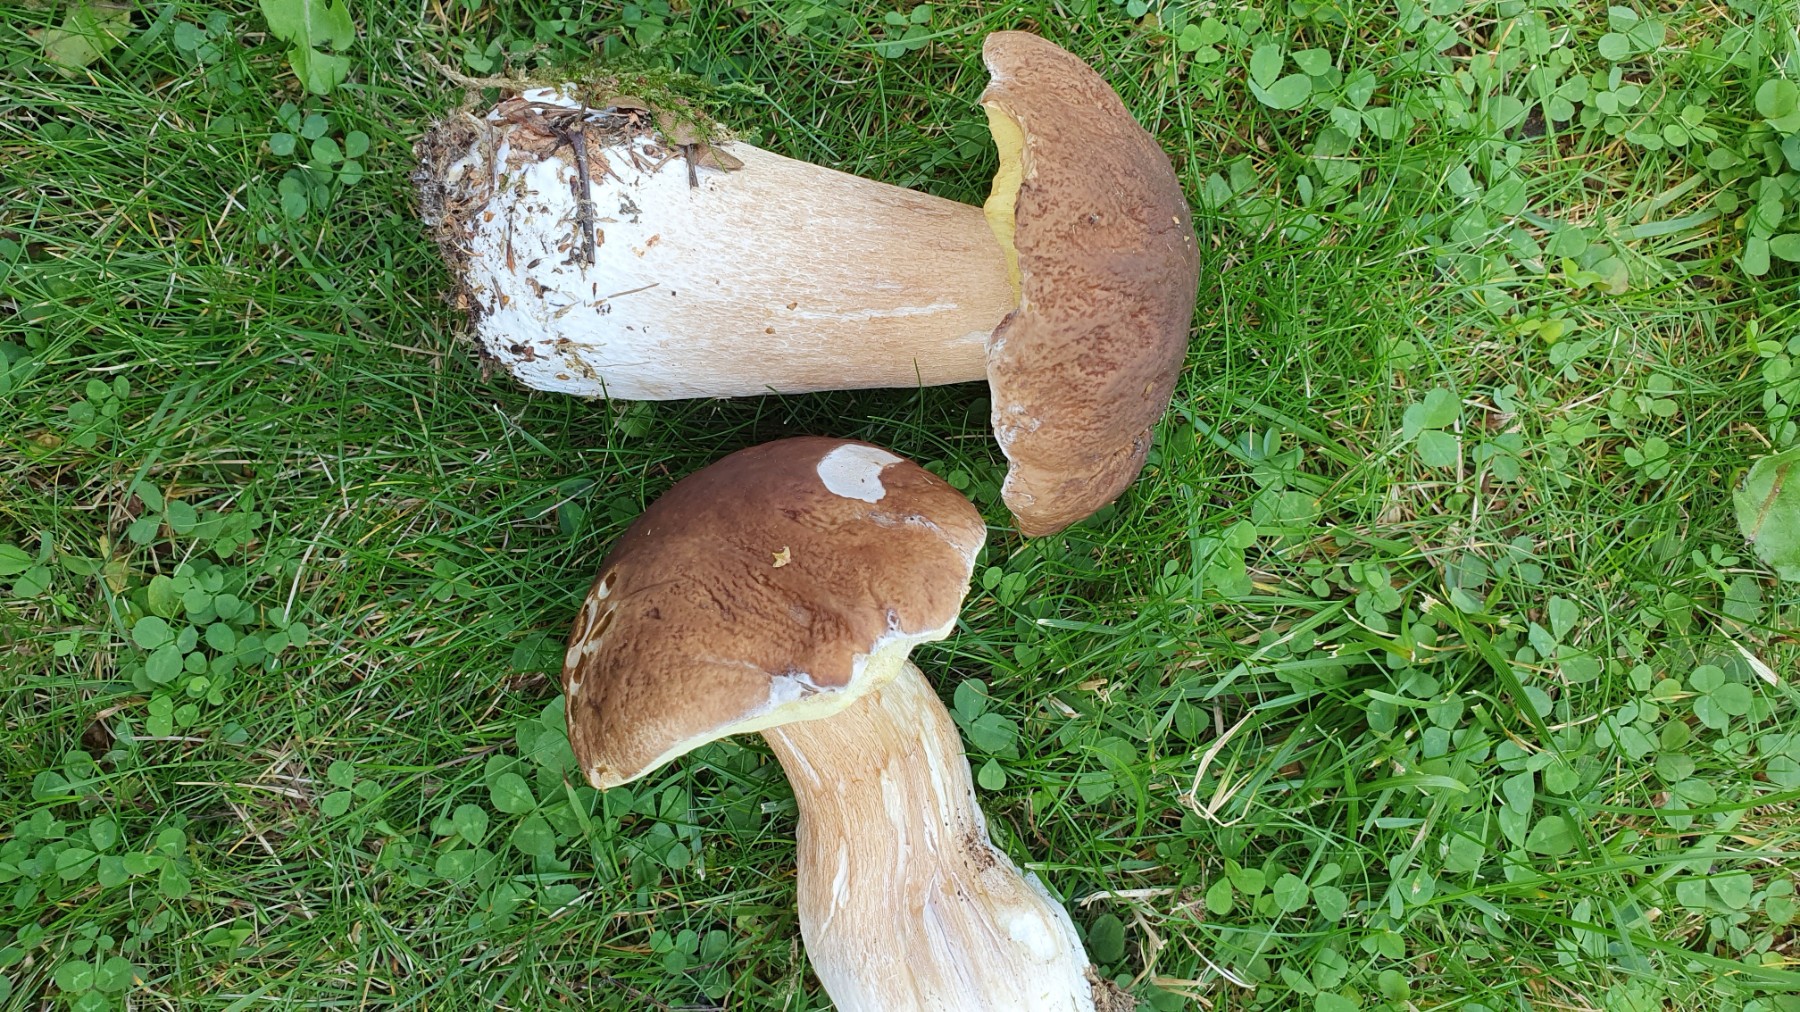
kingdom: Fungi
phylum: Basidiomycota
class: Agaricomycetes
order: Boletales
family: Boletaceae
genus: Boletus
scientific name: Boletus edulis
